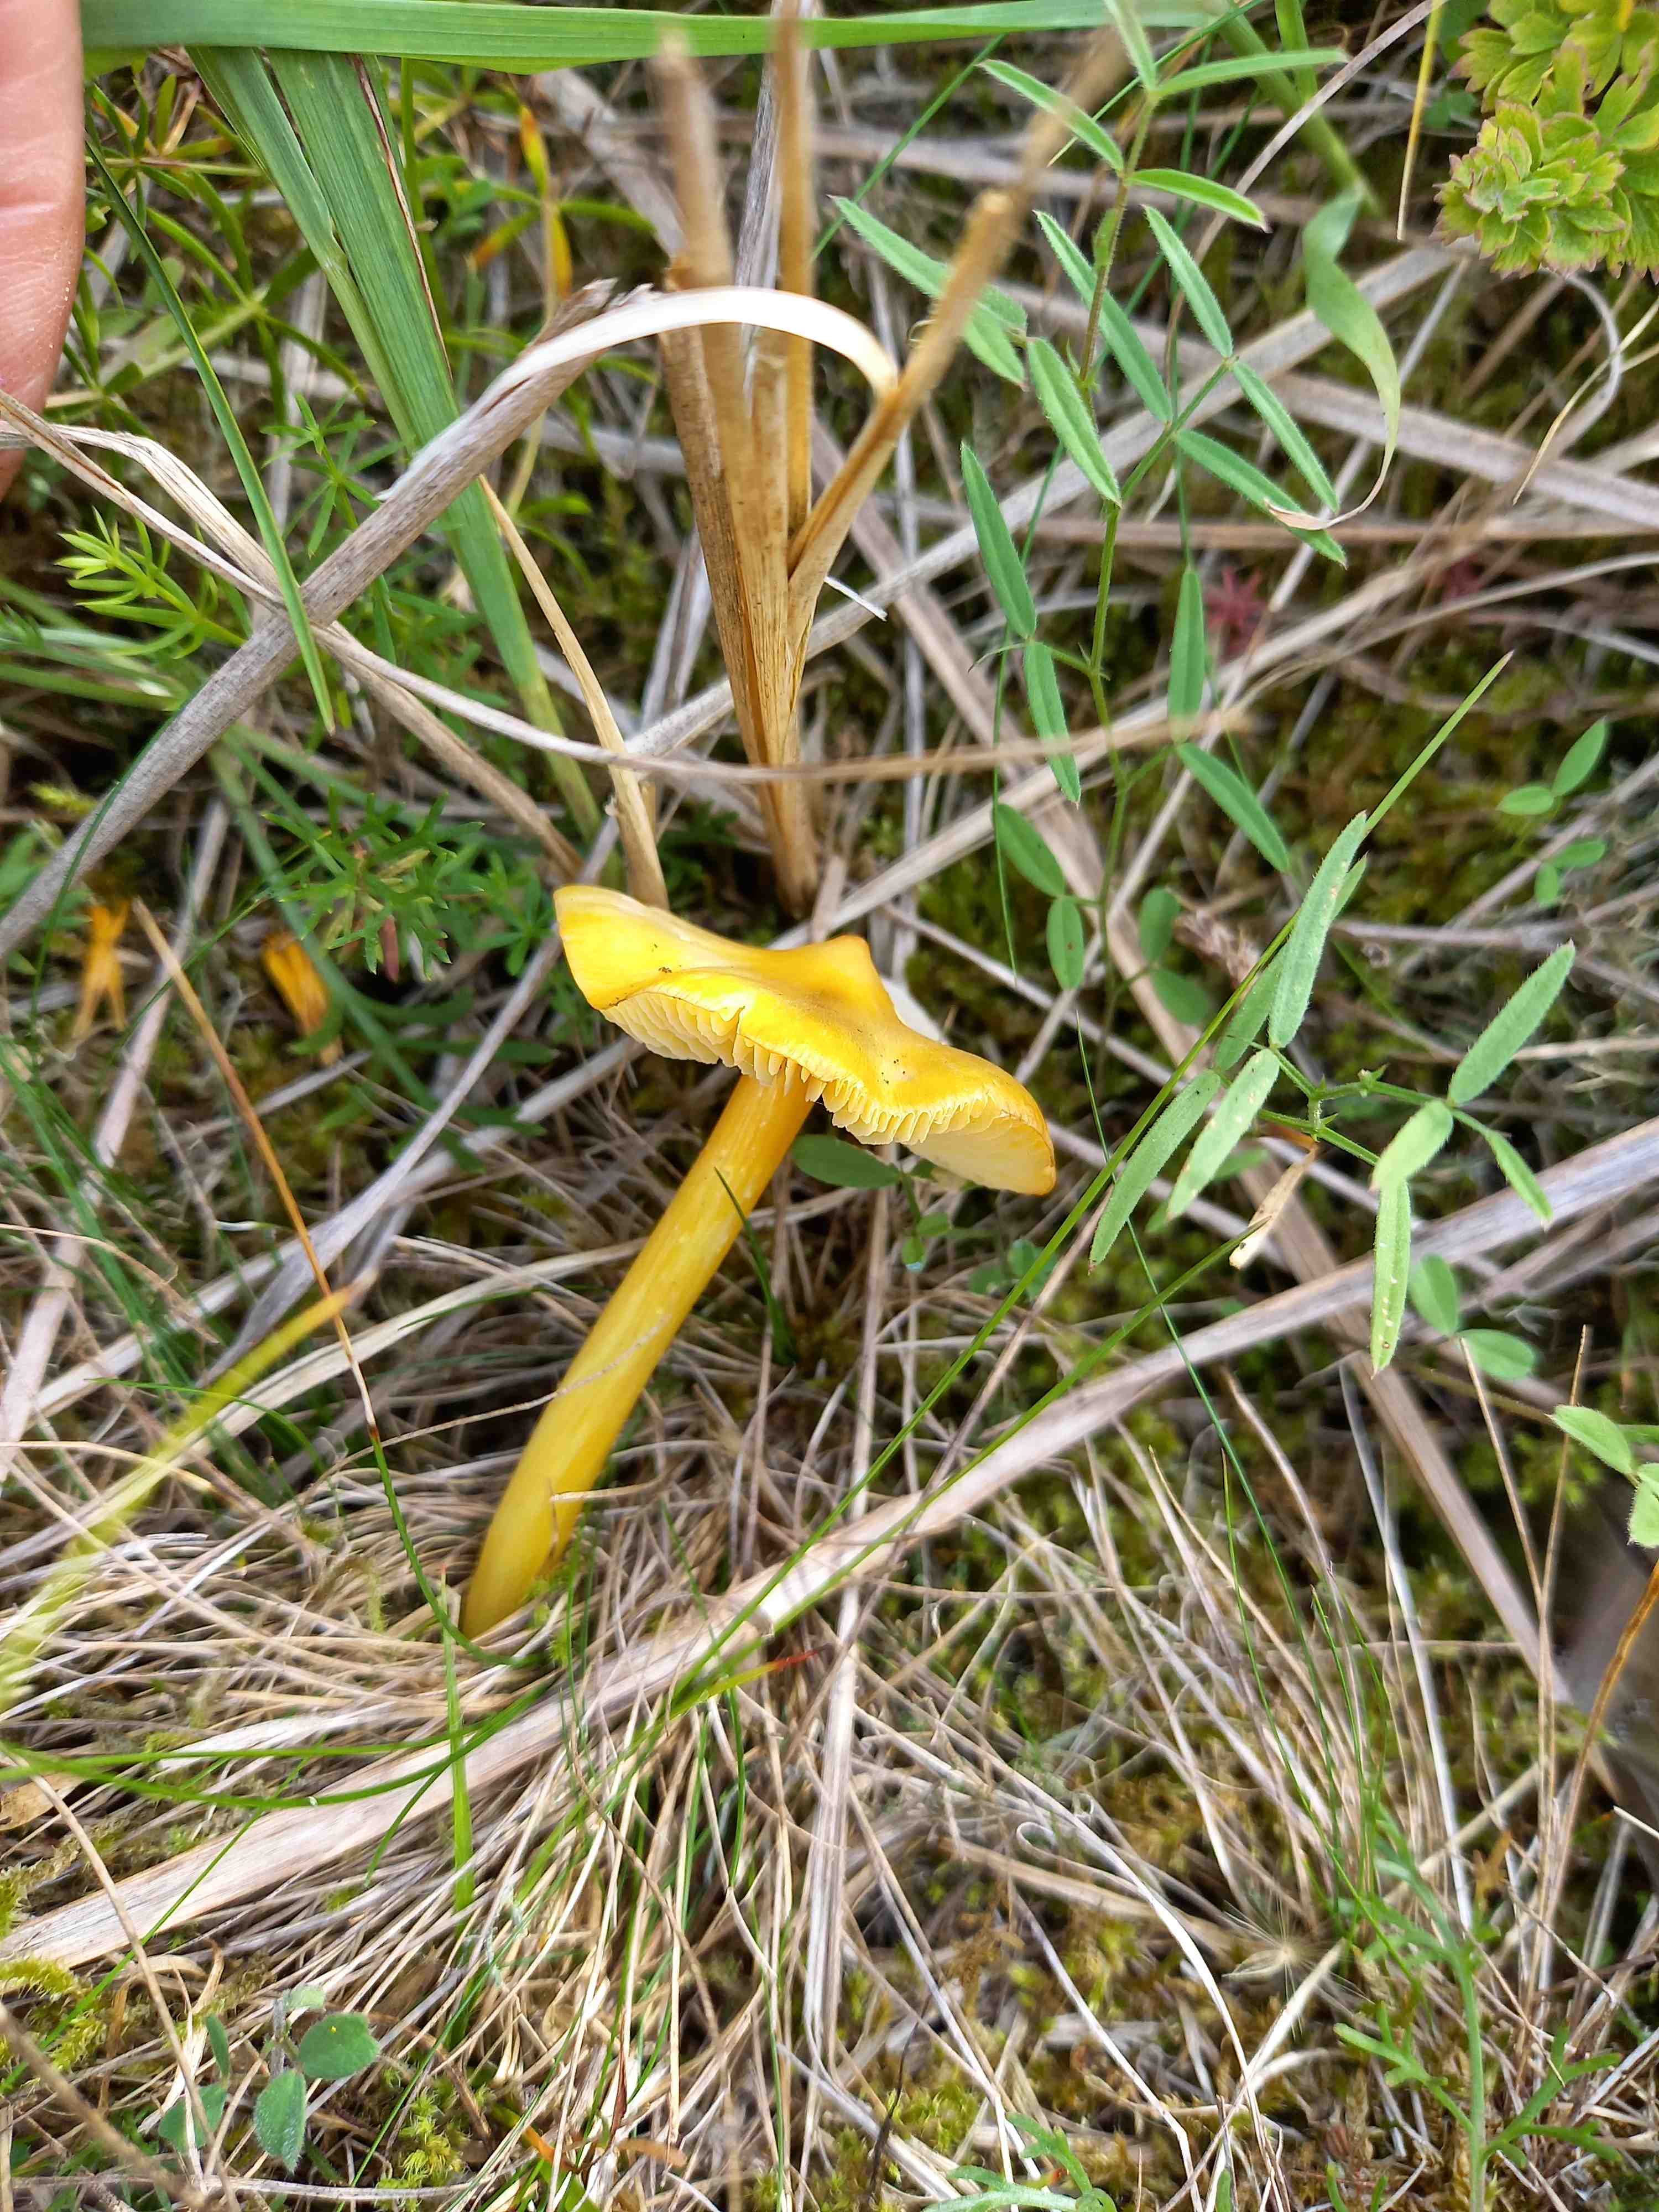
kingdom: Fungi
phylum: Basidiomycota
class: Agaricomycetes
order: Agaricales
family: Hygrophoraceae
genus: Hygrocybe
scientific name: Hygrocybe
